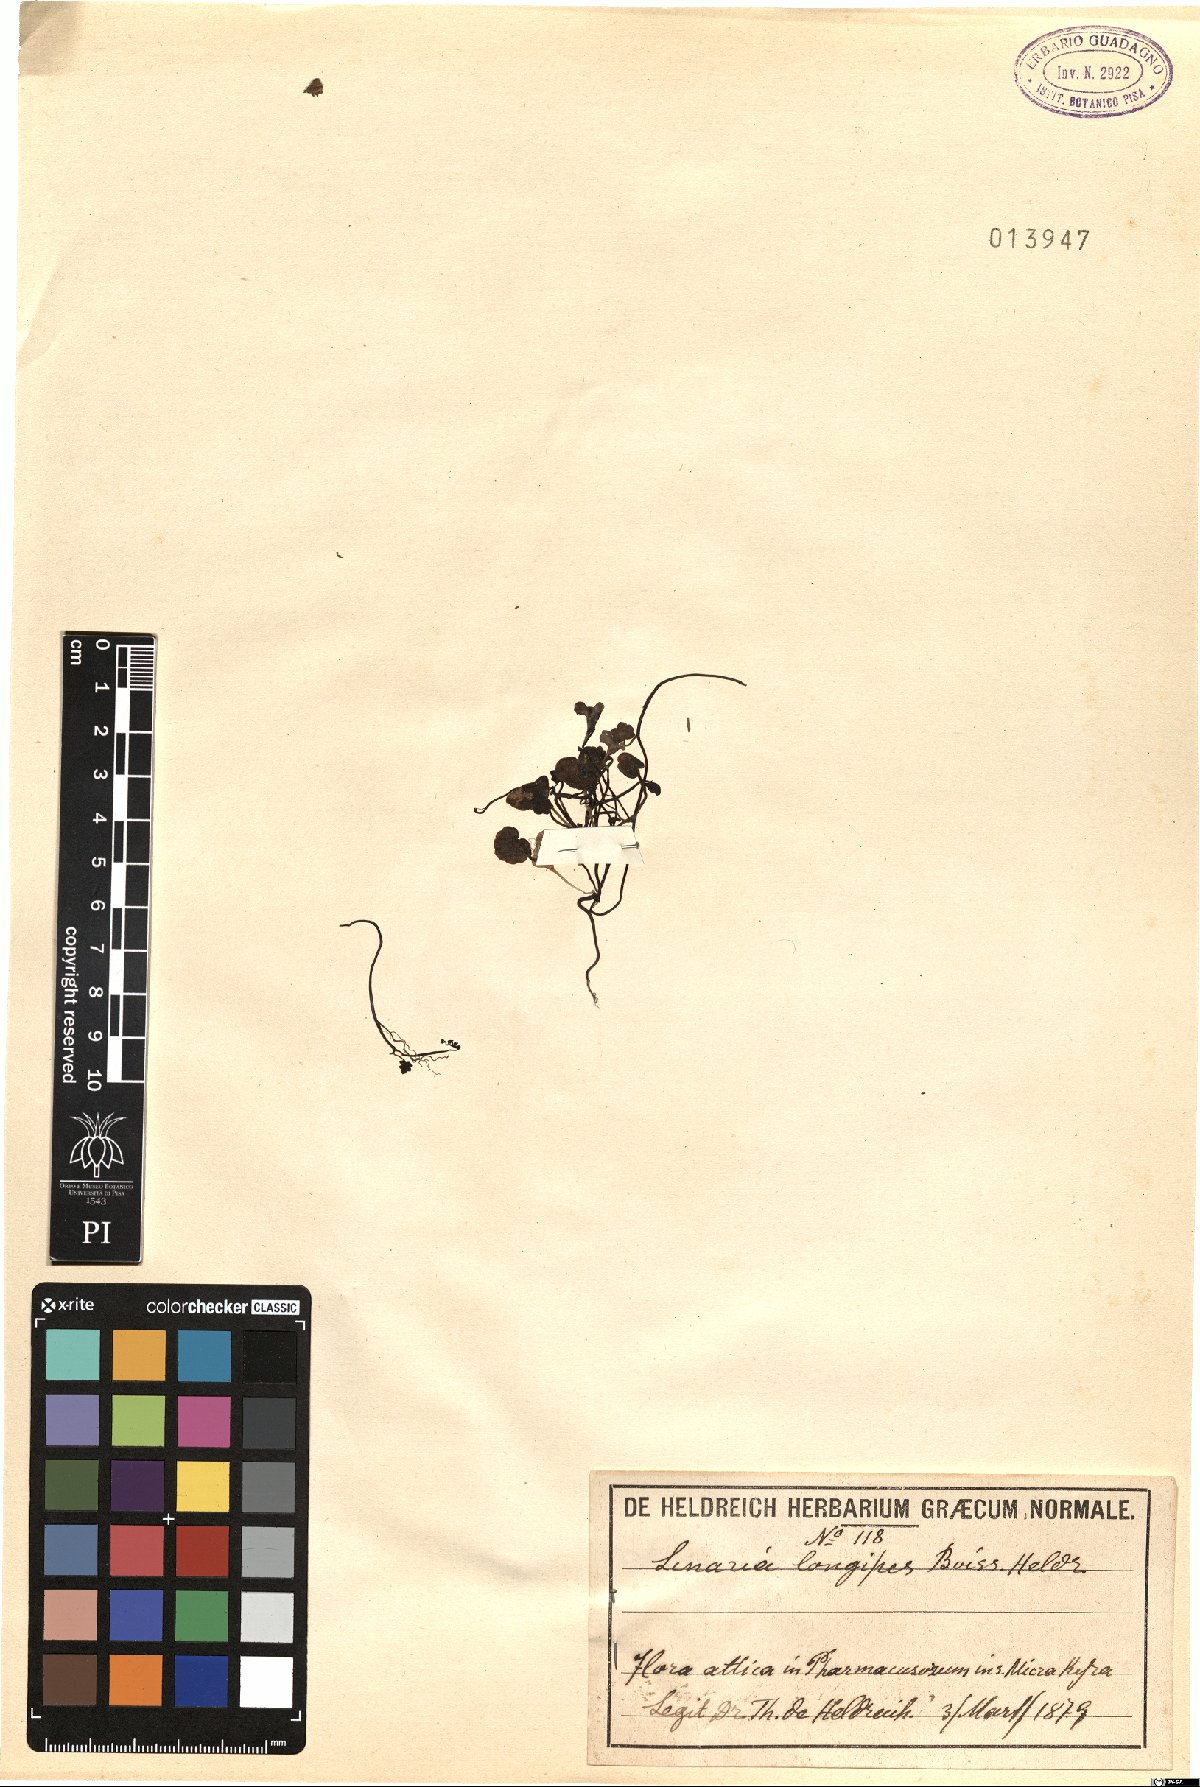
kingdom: Plantae
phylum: Tracheophyta
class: Magnoliopsida
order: Lamiales
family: Plantaginaceae
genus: Cymbalaria
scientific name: Cymbalaria longipes
